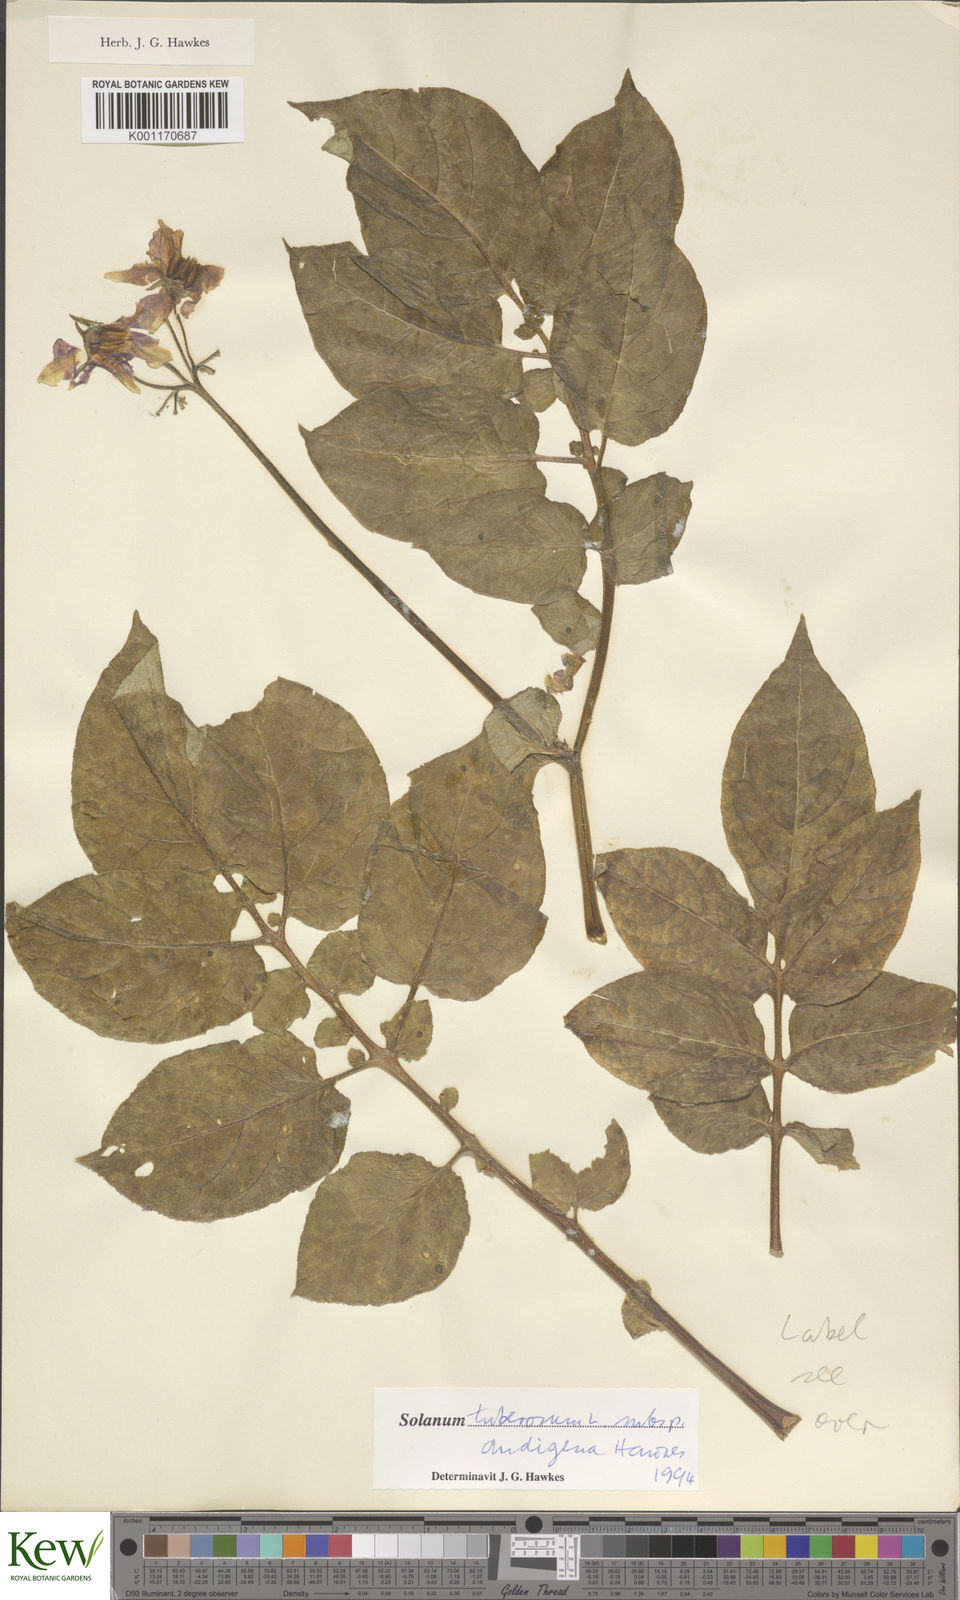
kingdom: Plantae
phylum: Tracheophyta
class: Magnoliopsida
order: Solanales
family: Solanaceae
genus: Solanum
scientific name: Solanum tuberosum
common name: Potato
